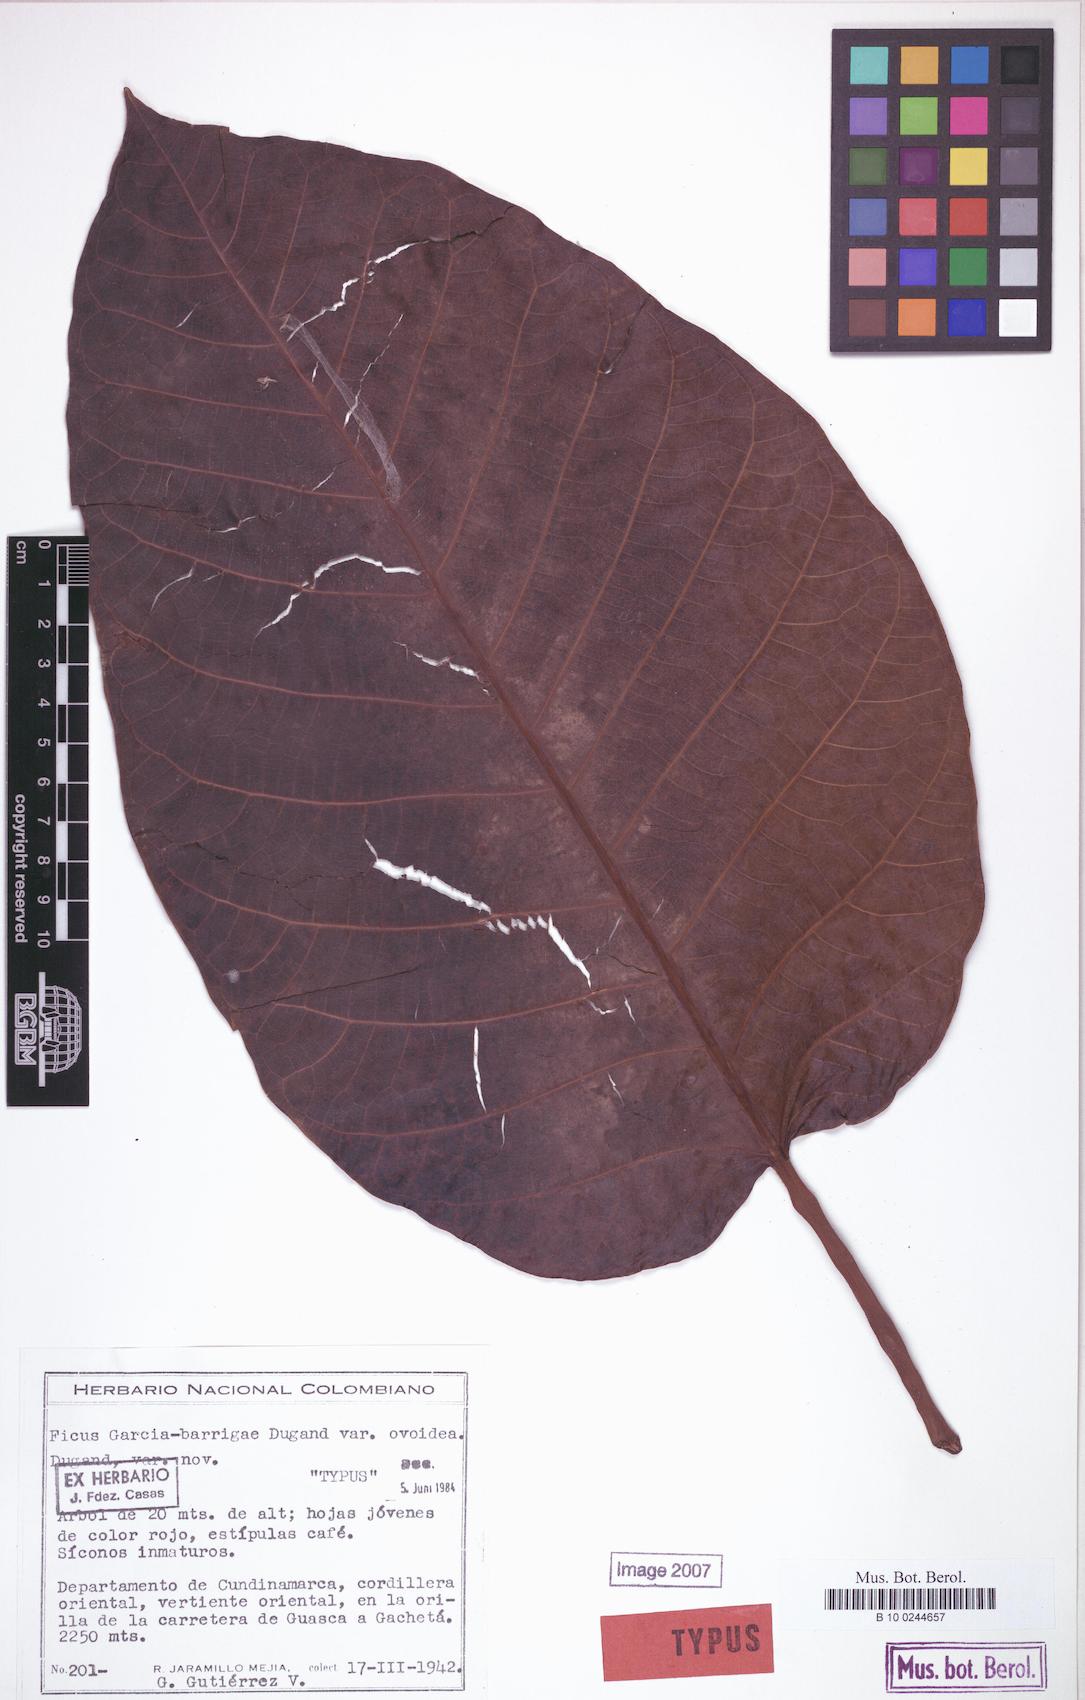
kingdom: Plantae
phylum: Tracheophyta
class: Magnoliopsida
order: Rosales
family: Moraceae
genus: Ficus
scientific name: Ficus cuatrecasana
